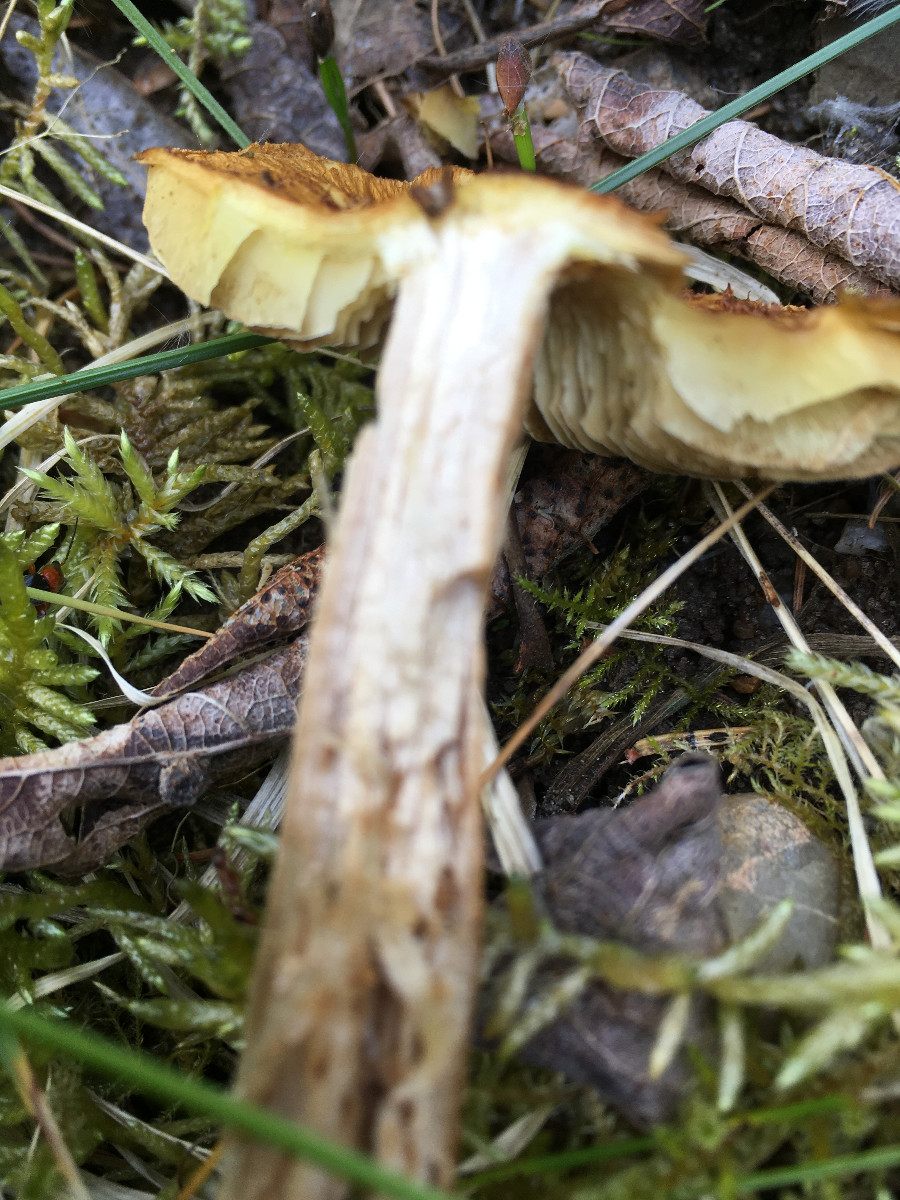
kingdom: Fungi
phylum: Basidiomycota
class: Agaricomycetes
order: Agaricales
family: Inocybaceae
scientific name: Inocybaceae
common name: trævlhatfamilien
